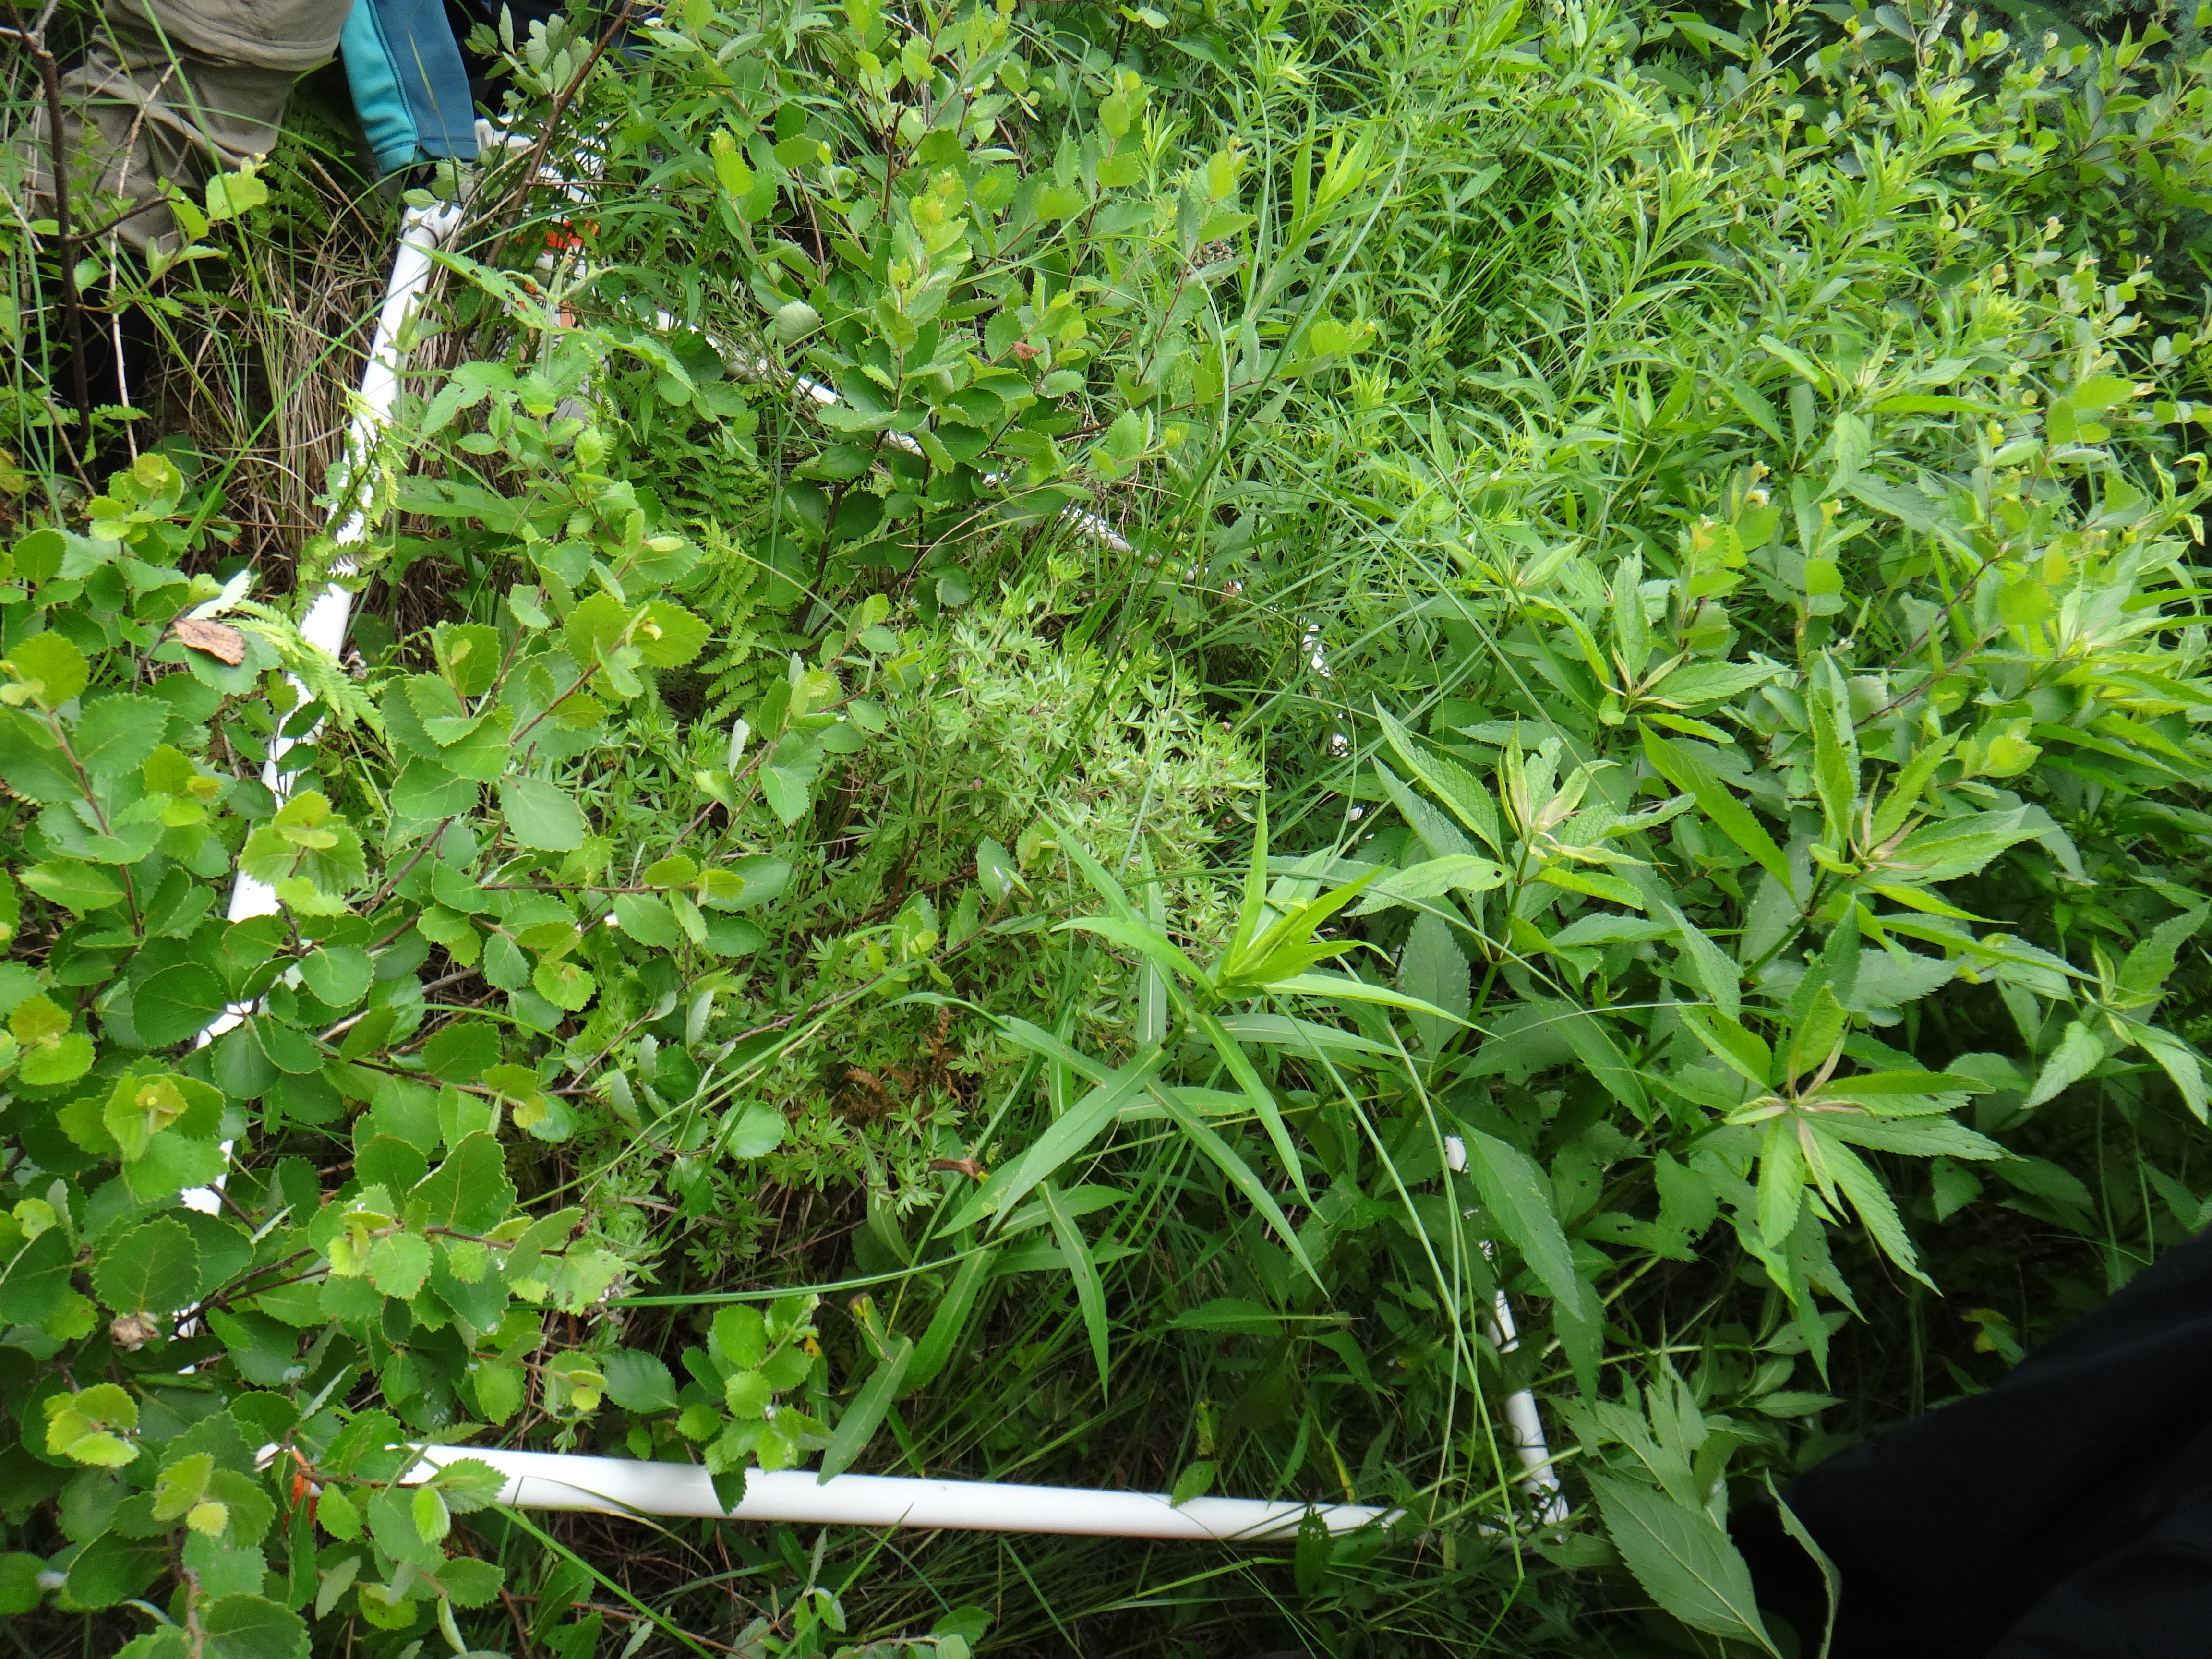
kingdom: Plantae
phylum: Tracheophyta
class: Liliopsida
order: Poales
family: Cyperaceae
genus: Carex
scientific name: Carex tetanica
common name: Rigid sedge
